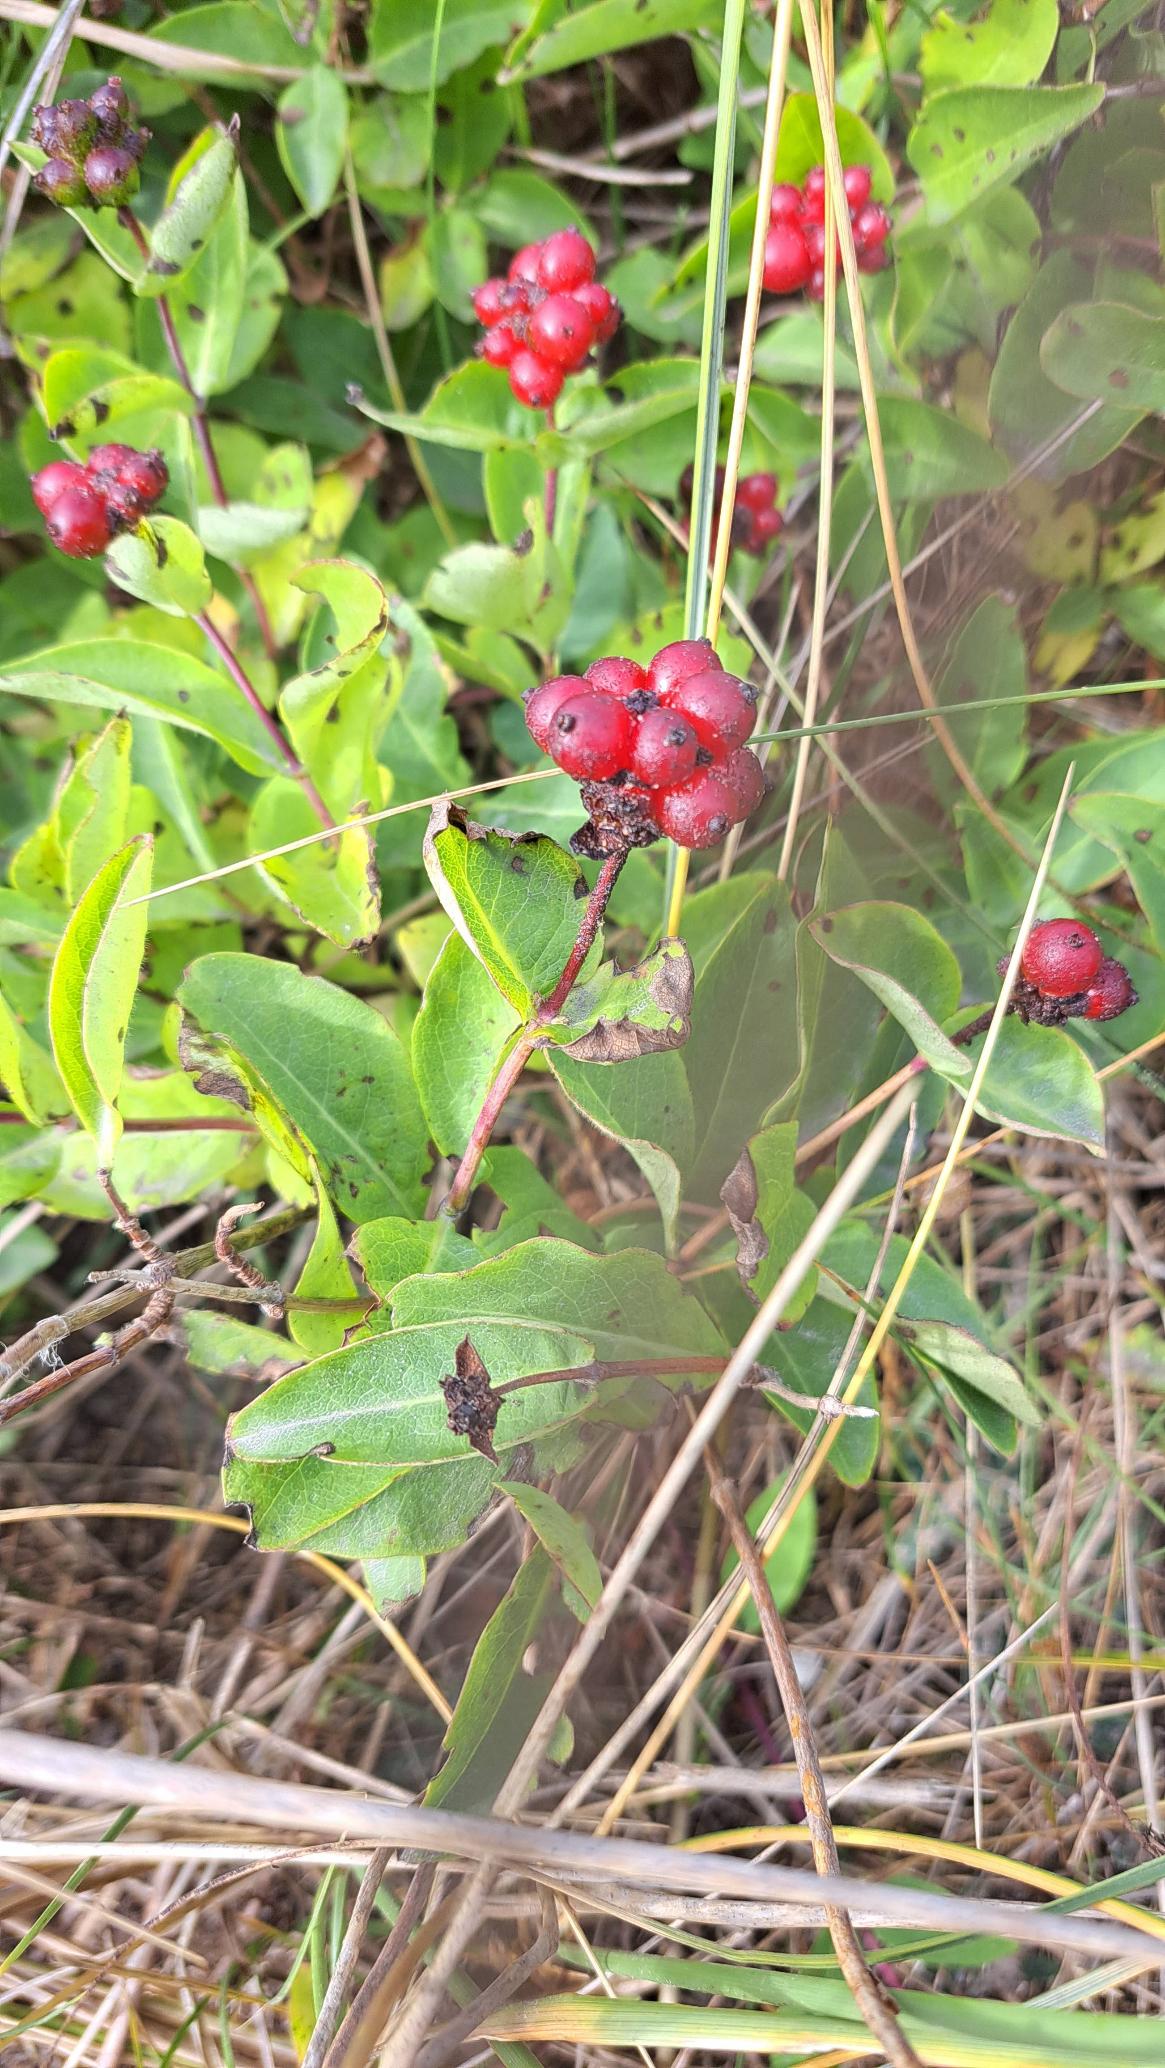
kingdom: Plantae
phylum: Tracheophyta
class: Magnoliopsida
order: Dipsacales
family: Caprifoliaceae
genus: Lonicera
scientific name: Lonicera periclymenum
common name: Almindelig gedeblad
